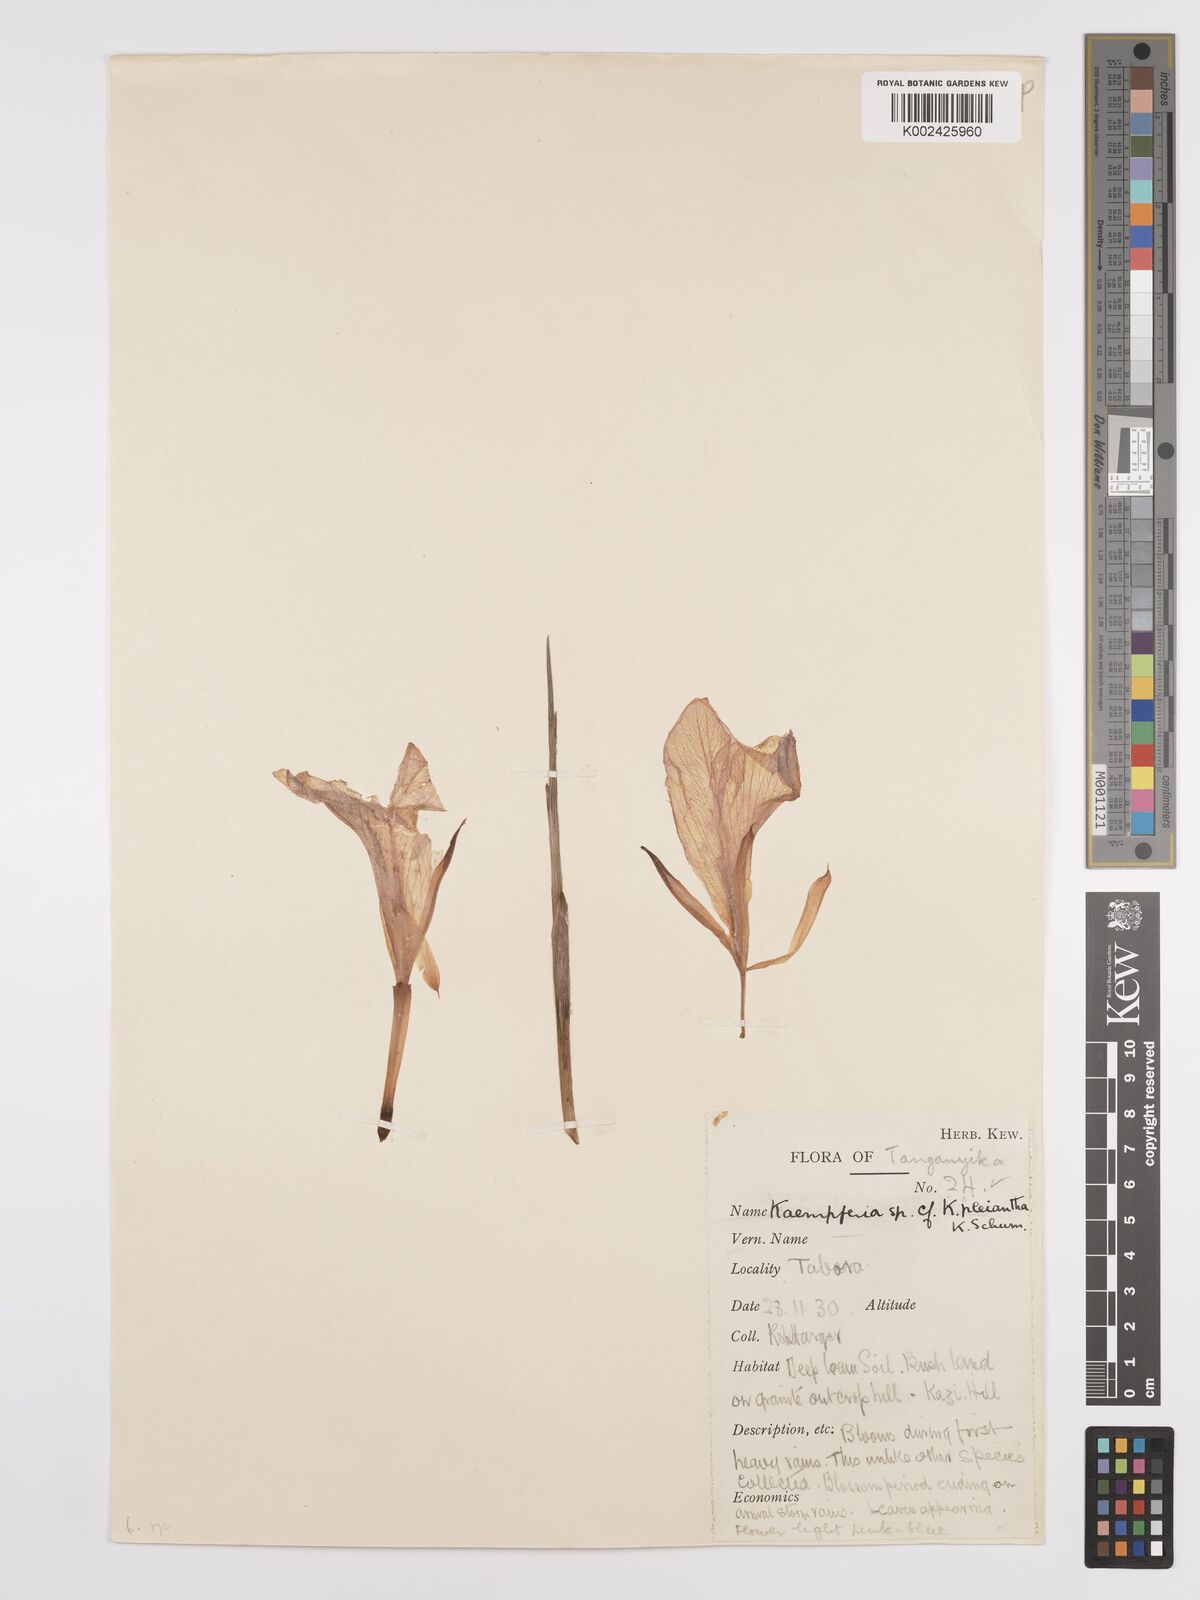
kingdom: Plantae
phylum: Tracheophyta
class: Liliopsida
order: Zingiberales
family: Zingiberaceae
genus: Siphonochilus
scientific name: Siphonochilus
